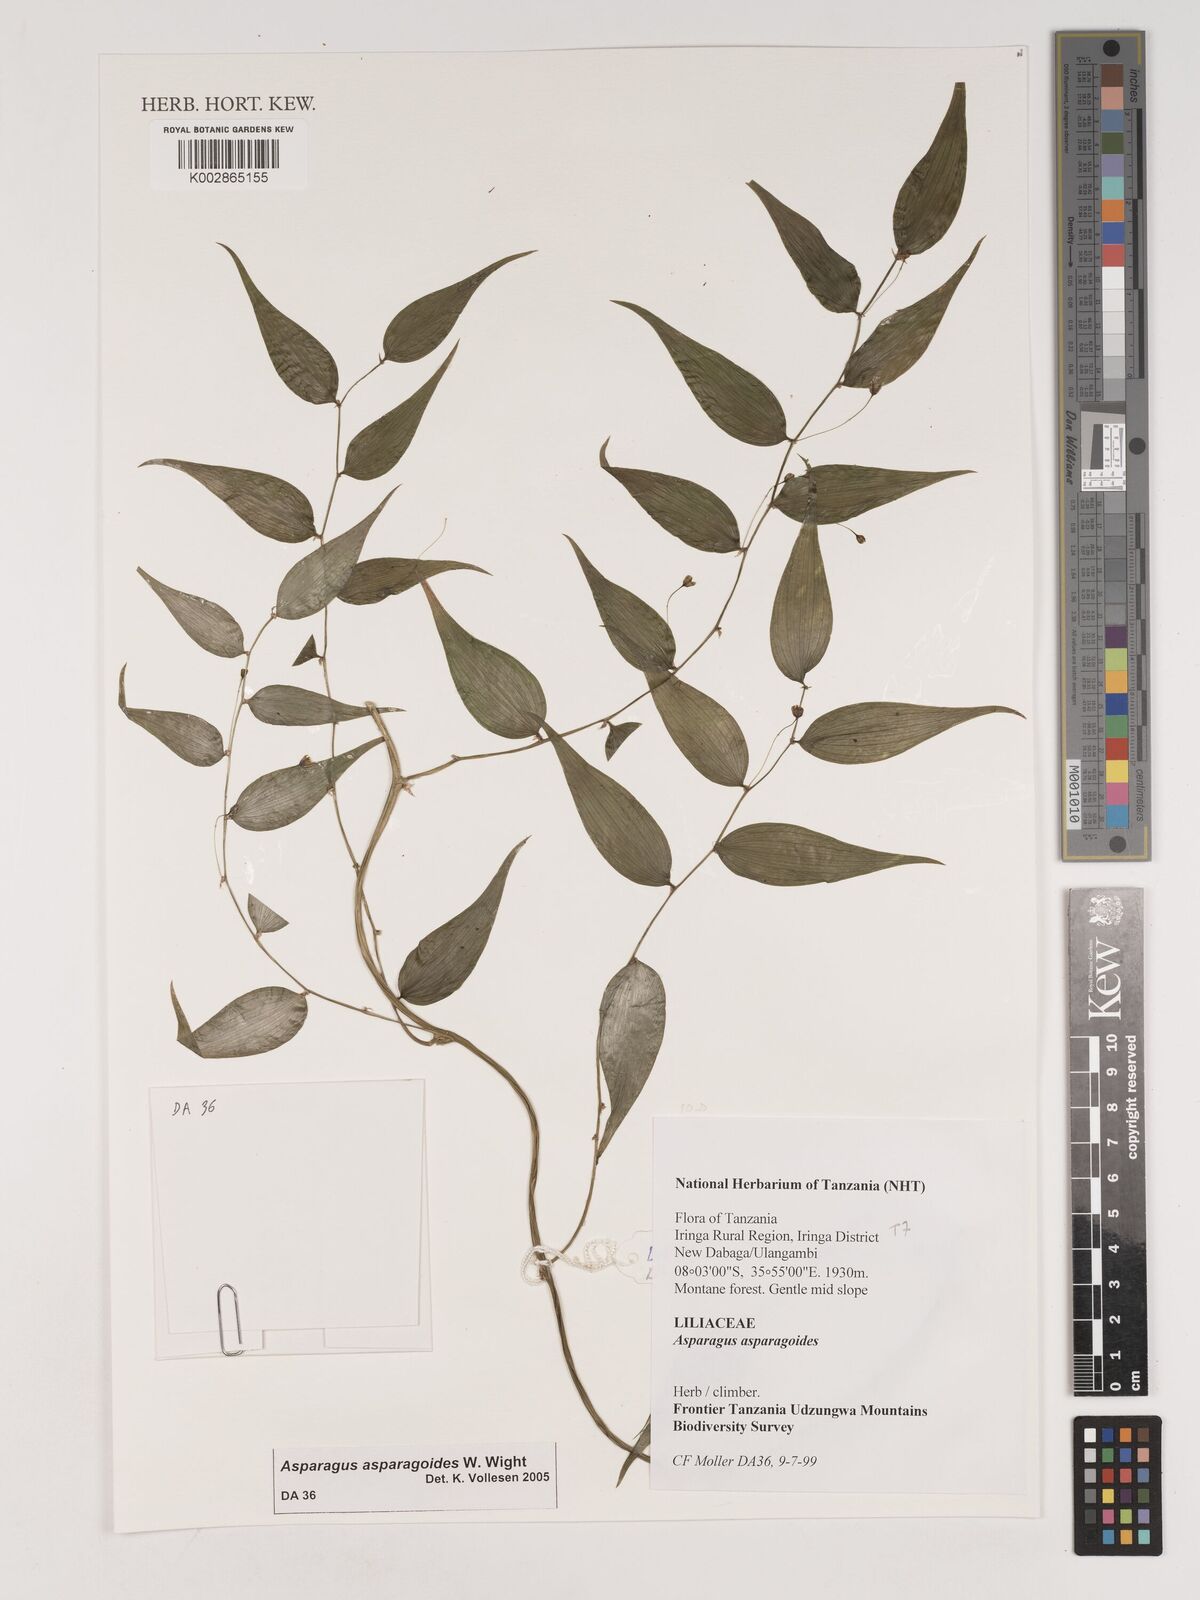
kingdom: Plantae
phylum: Tracheophyta
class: Liliopsida
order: Asparagales
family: Asparagaceae
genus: Asparagus
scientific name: Asparagus asparagoides
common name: African asparagus fern
